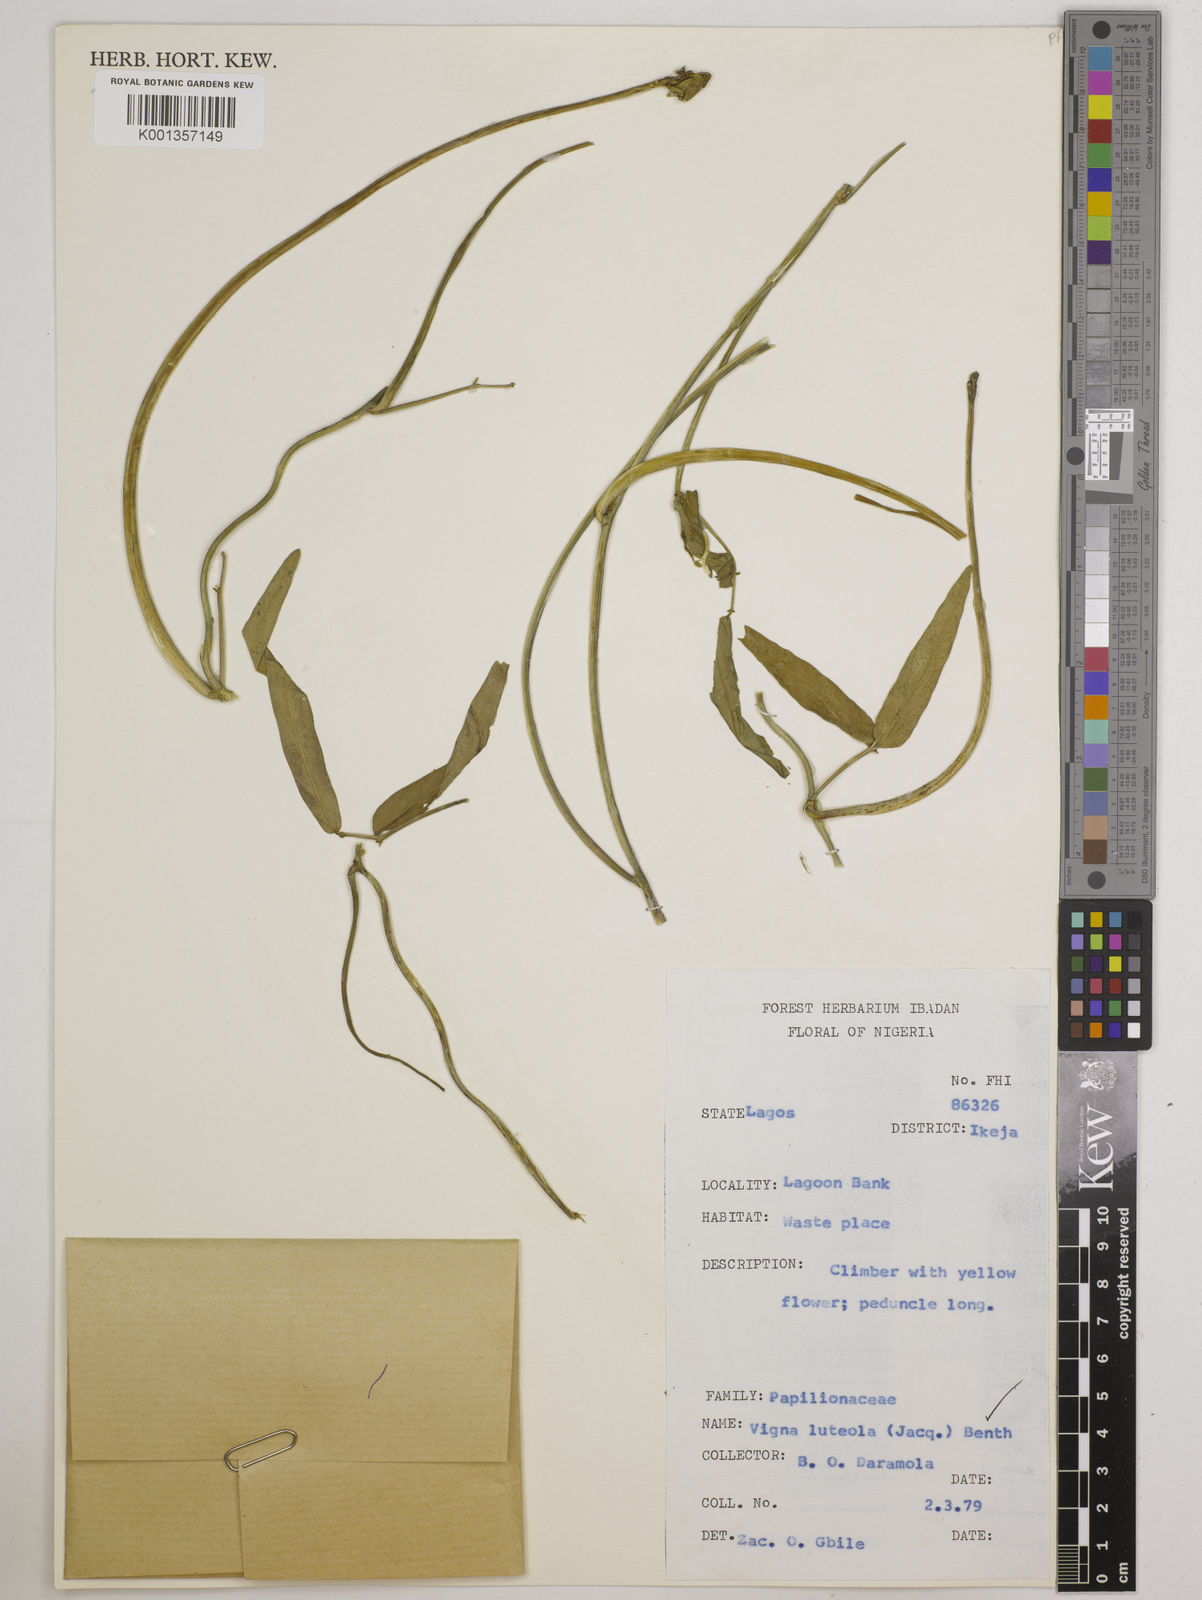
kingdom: Plantae
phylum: Tracheophyta
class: Magnoliopsida
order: Fabales
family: Fabaceae
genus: Vigna
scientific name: Vigna luteola
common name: Hairypod cowpea
